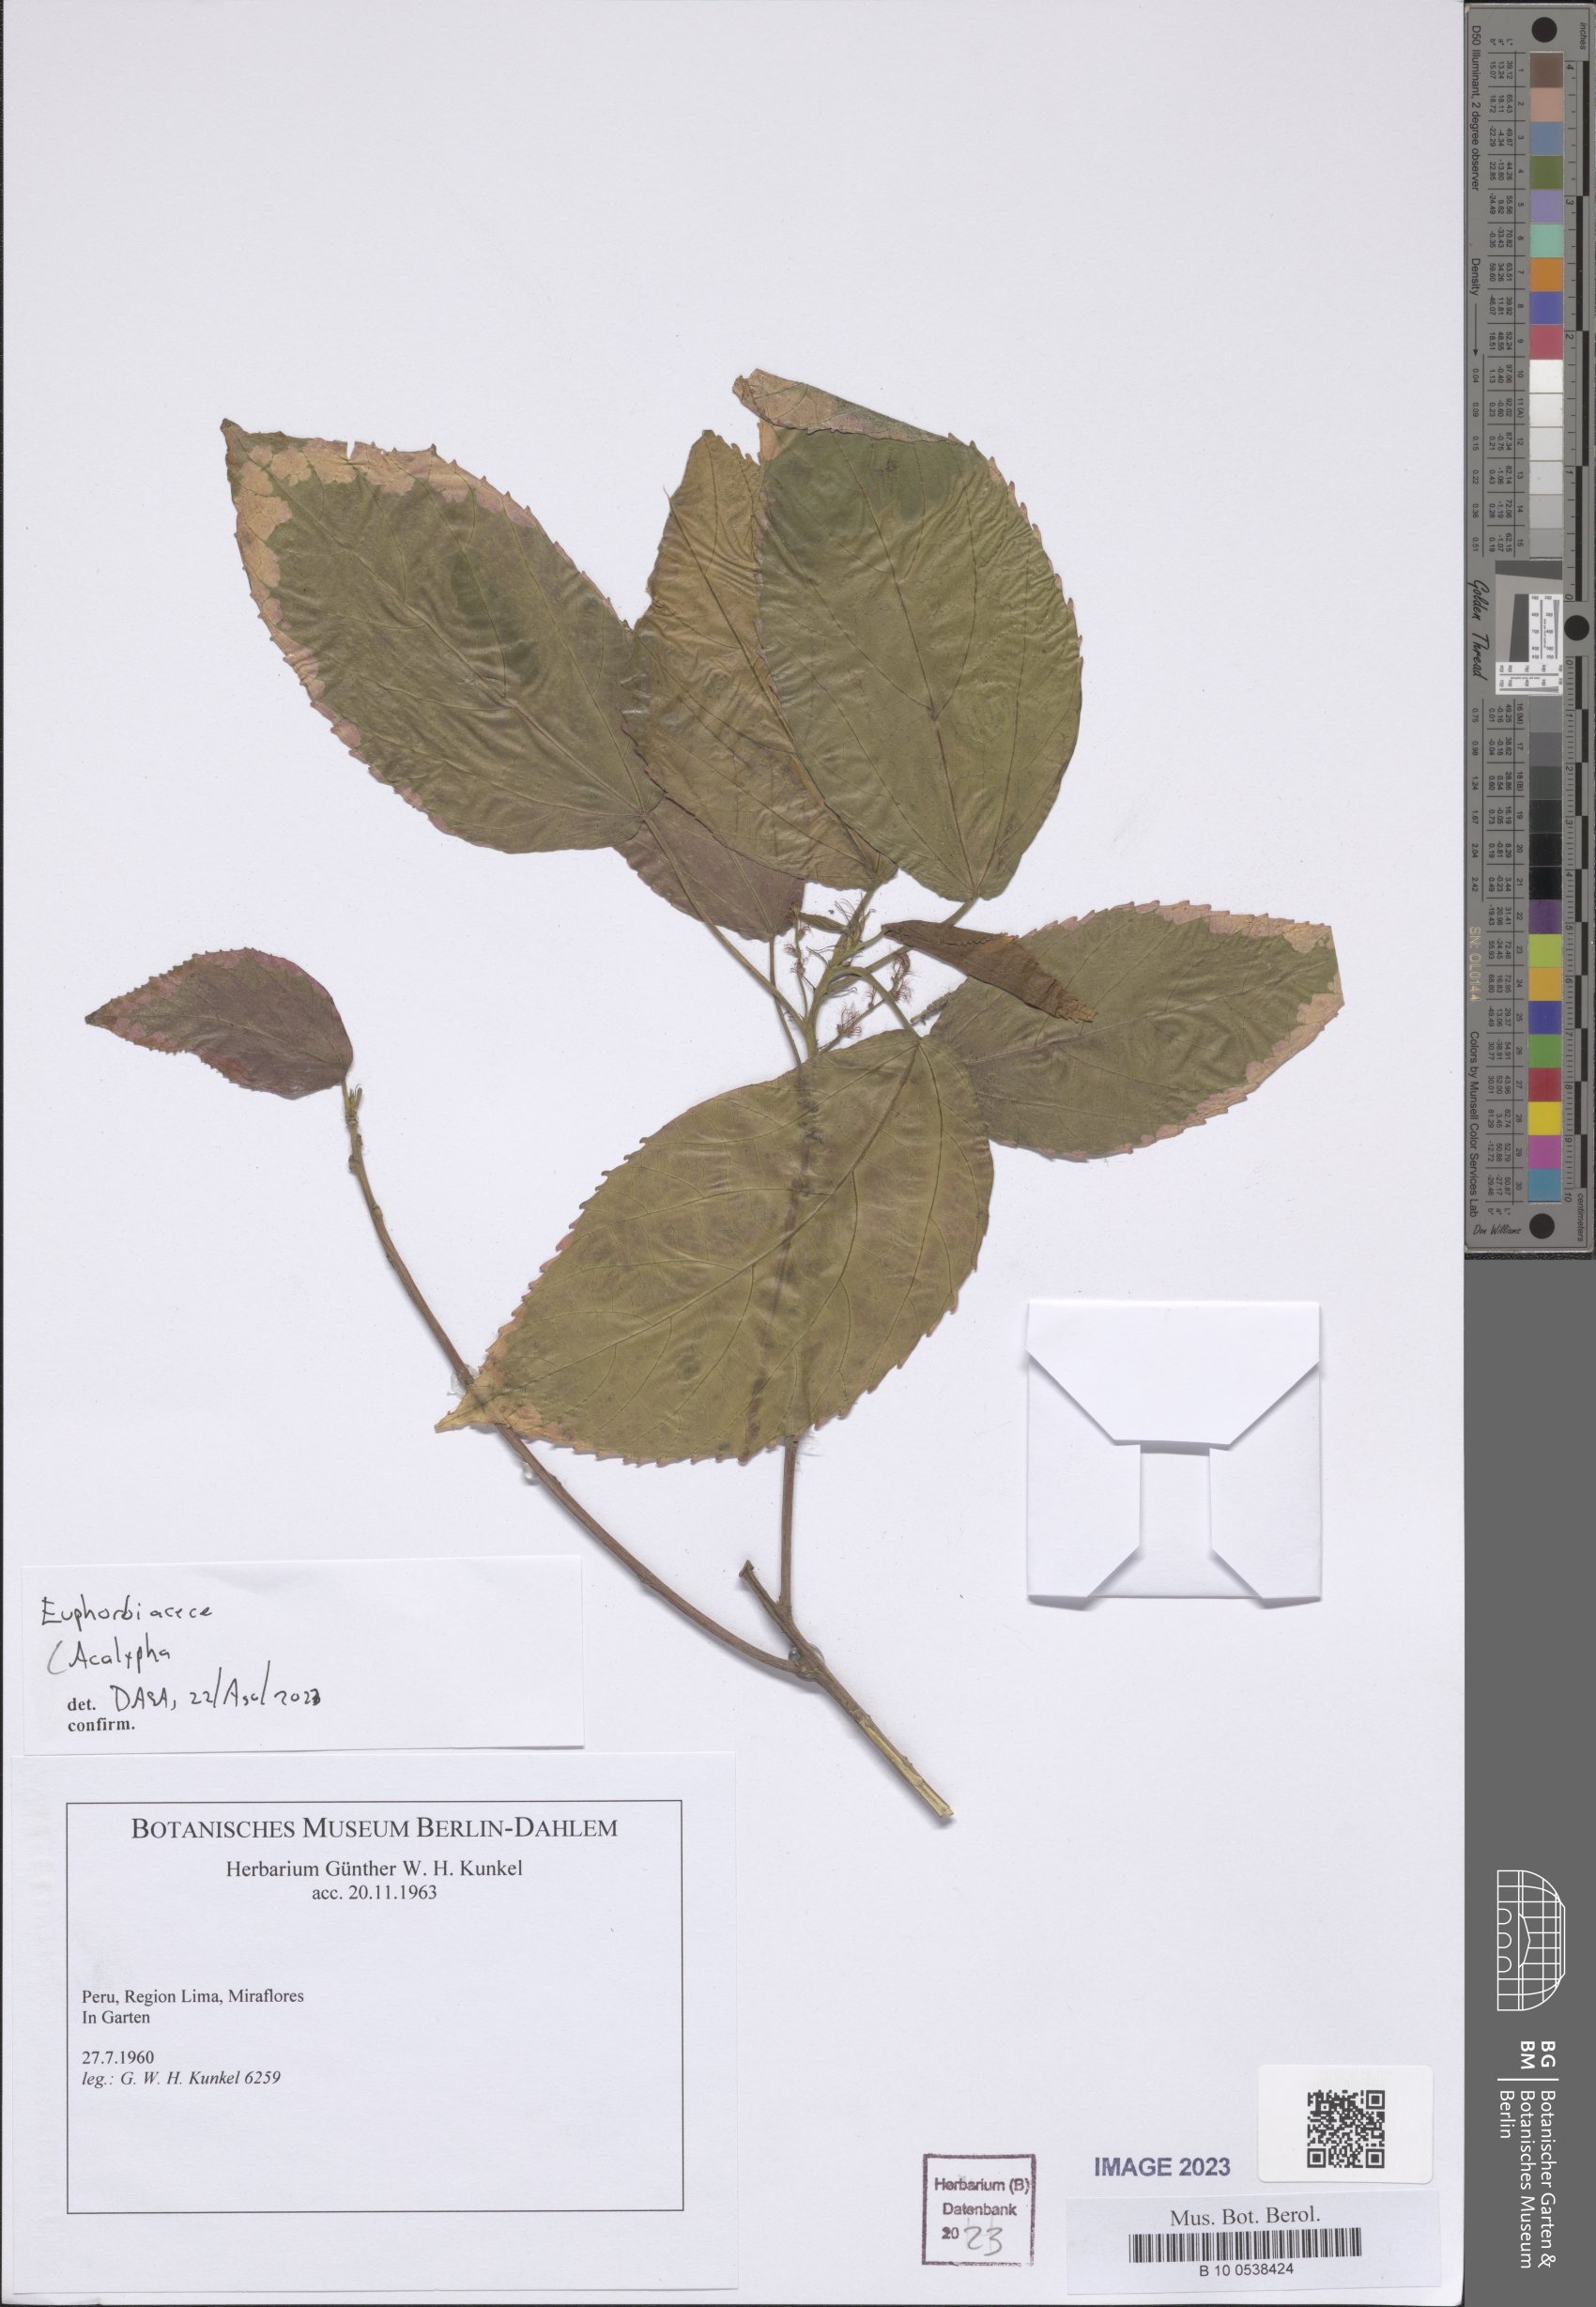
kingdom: Plantae
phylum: Tracheophyta
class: Magnoliopsida
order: Malpighiales
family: Euphorbiaceae
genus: Acalypha
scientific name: Acalypha
